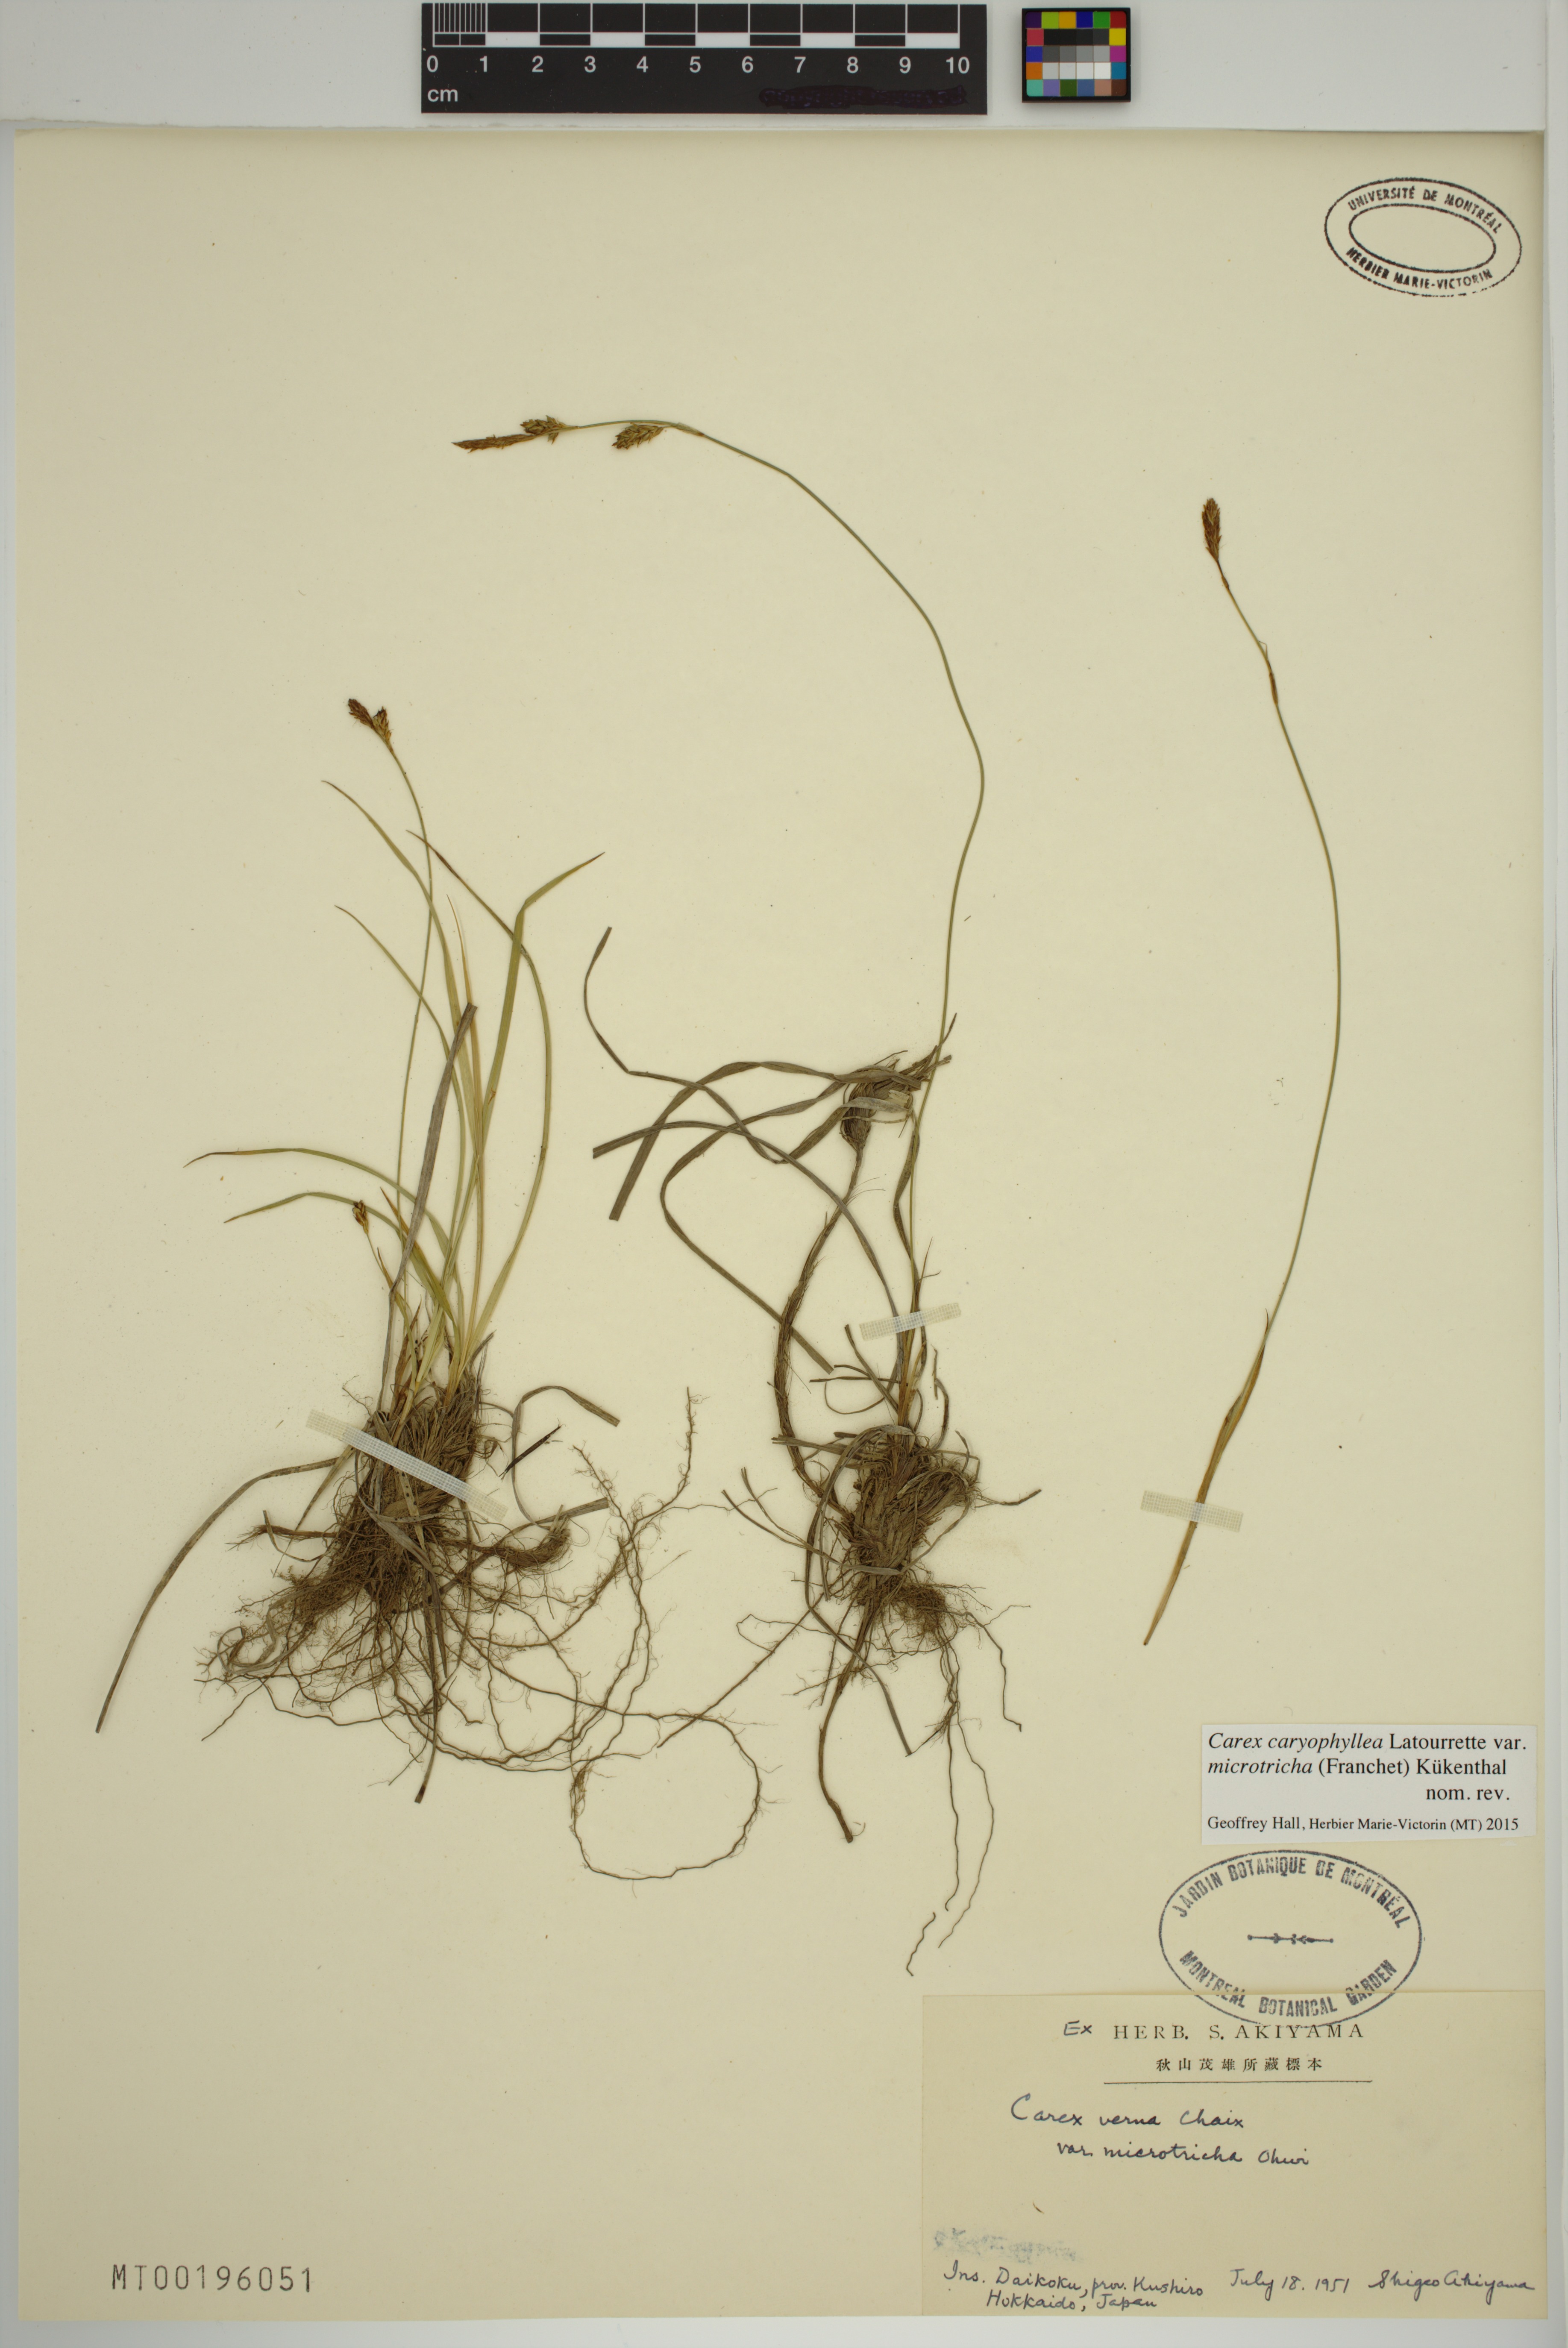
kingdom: Plantae
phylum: Tracheophyta
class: Liliopsida
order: Poales
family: Cyperaceae
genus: Carex
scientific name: Carex caryophyllea
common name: Spring sedge
